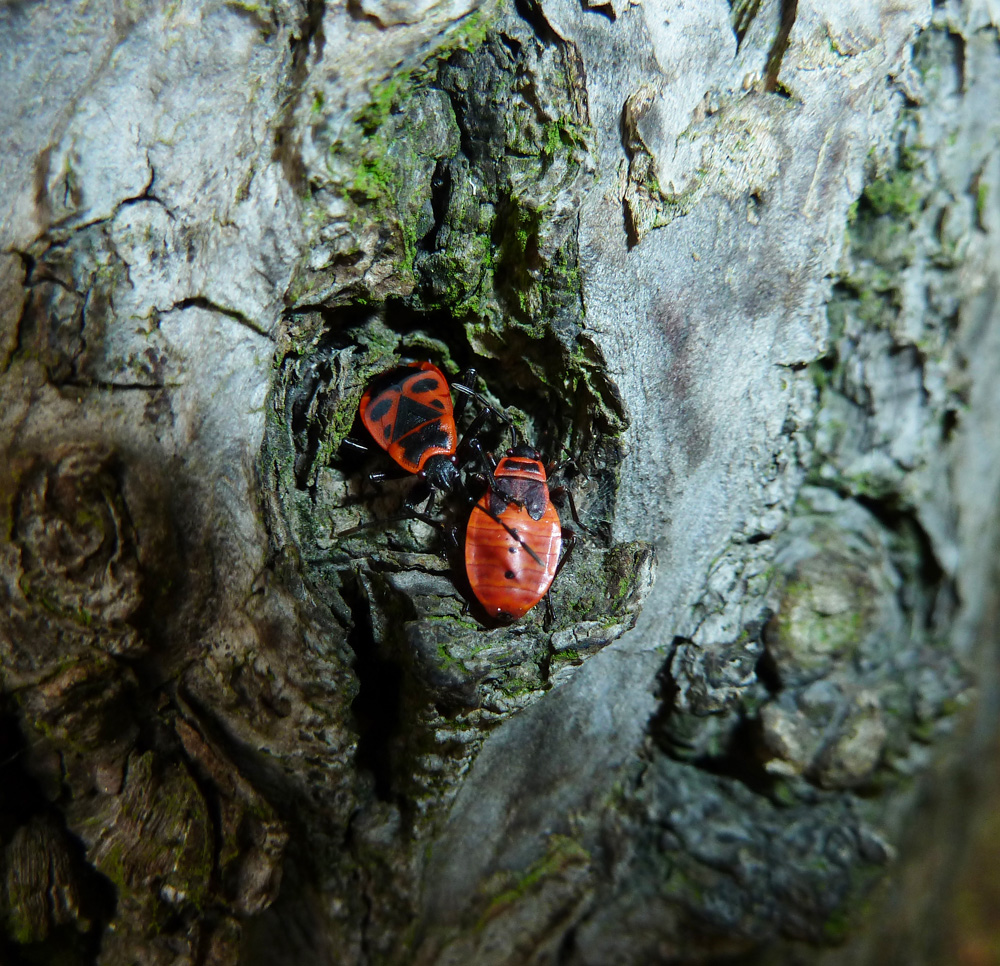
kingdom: Animalia
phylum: Arthropoda
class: Insecta
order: Hemiptera
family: Pyrrhocoridae
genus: Pyrrhocoris
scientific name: Pyrrhocoris apterus
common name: Firebug
